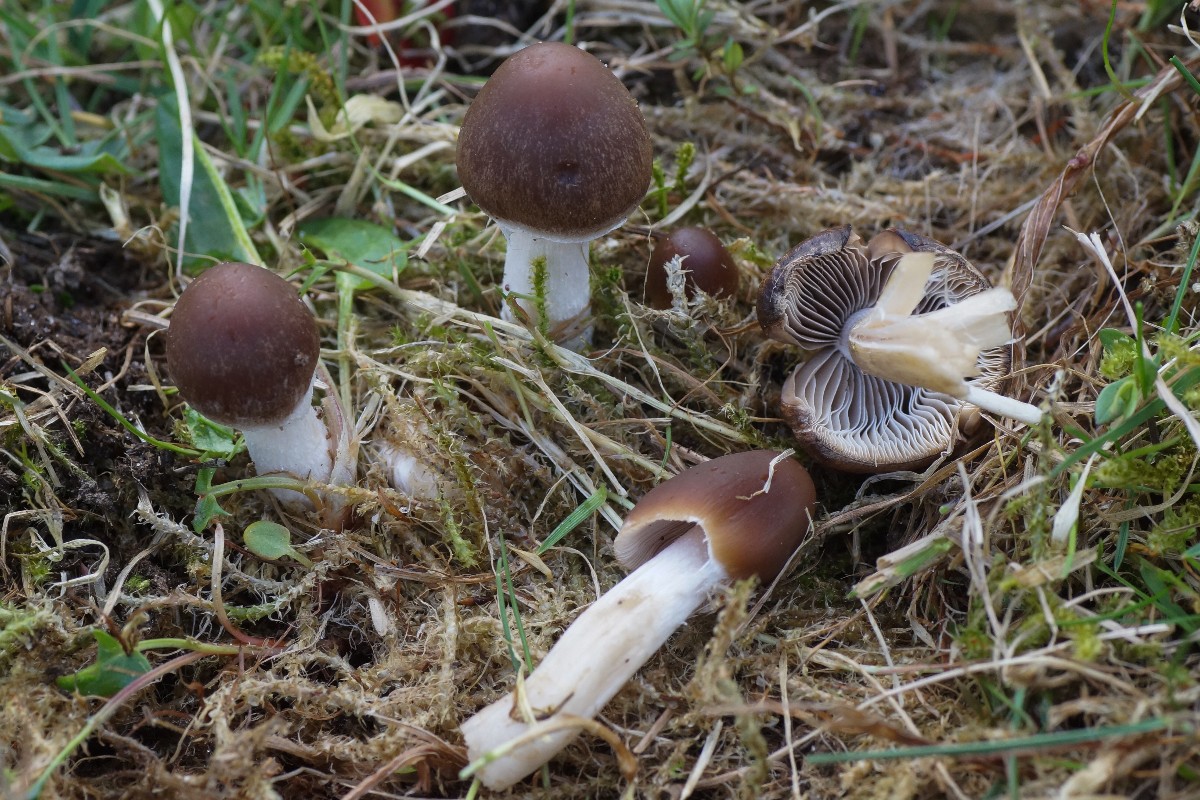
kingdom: Fungi
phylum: Basidiomycota
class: Agaricomycetes
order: Agaricales
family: Psathyrellaceae
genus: Psathyrella
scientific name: Psathyrella spadiceogrisea
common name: gråbrun mørkhat
